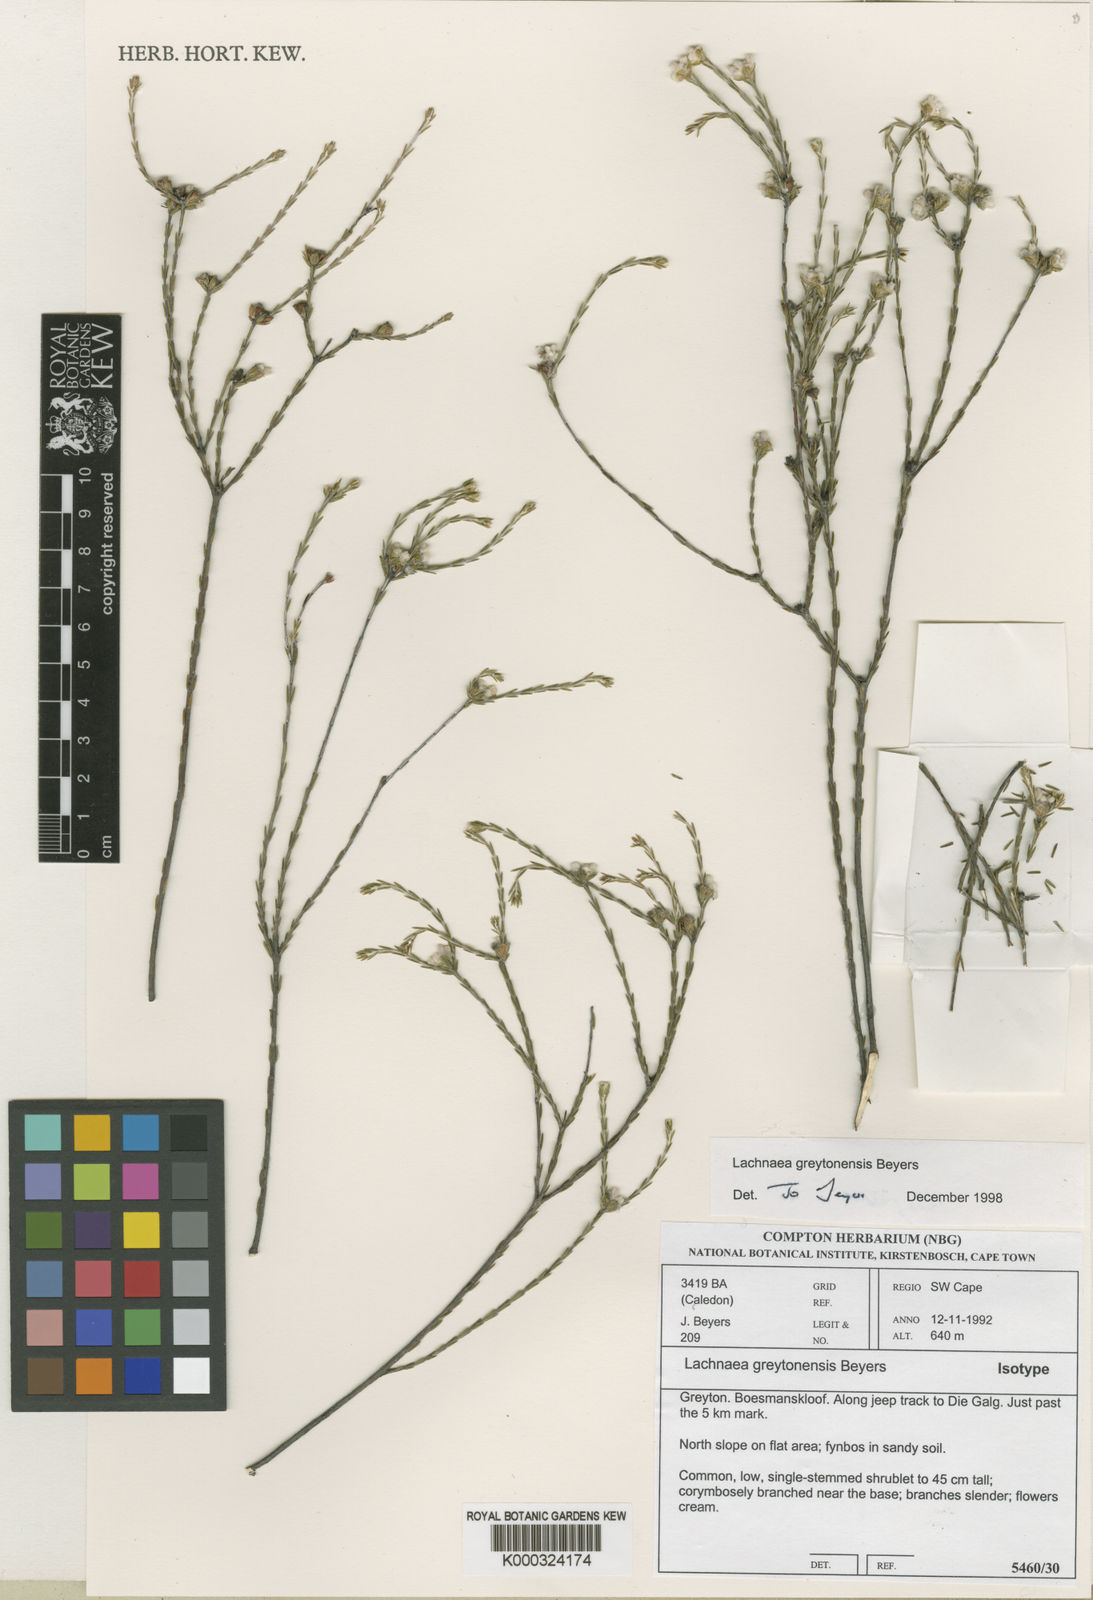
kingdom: Plantae
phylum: Tracheophyta
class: Magnoliopsida
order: Malvales
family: Thymelaeaceae
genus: Lachnaea
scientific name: Lachnaea greytonensis
